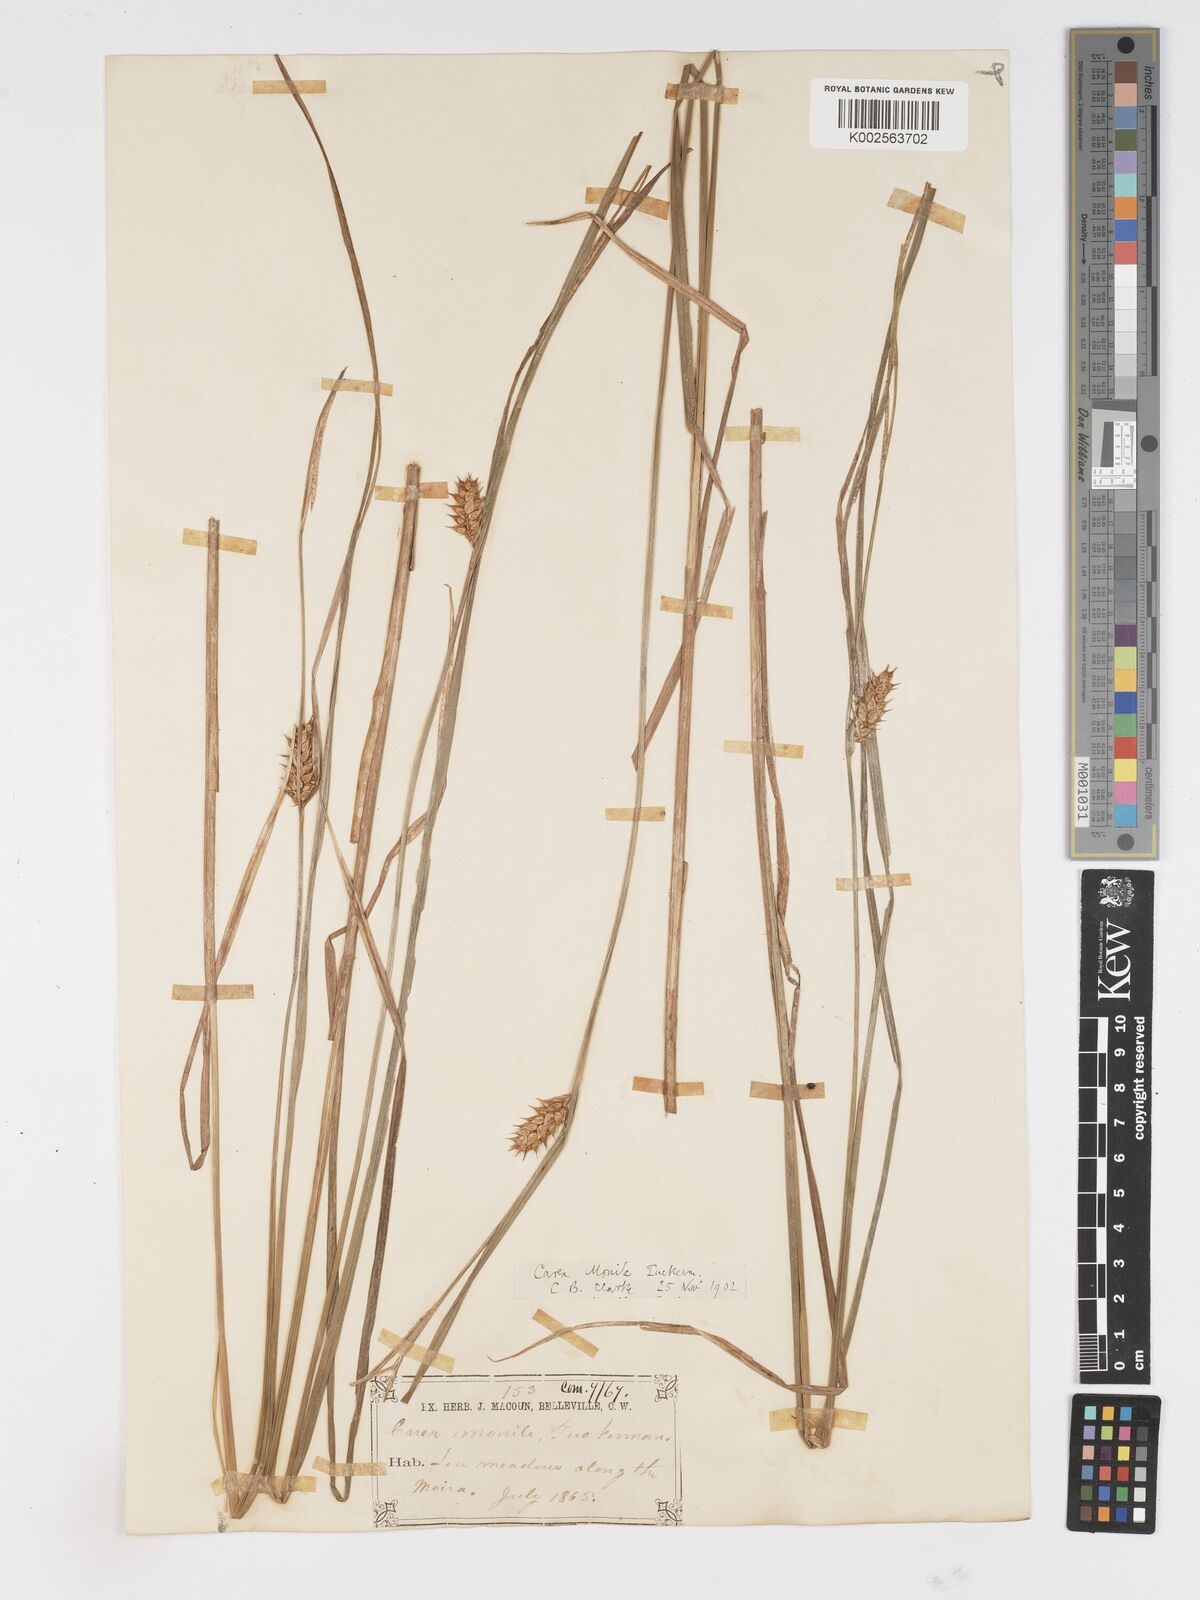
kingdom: Plantae
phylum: Tracheophyta
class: Liliopsida
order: Poales
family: Cyperaceae
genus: Carex
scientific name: Carex vesicaria
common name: Bladder-sedge
